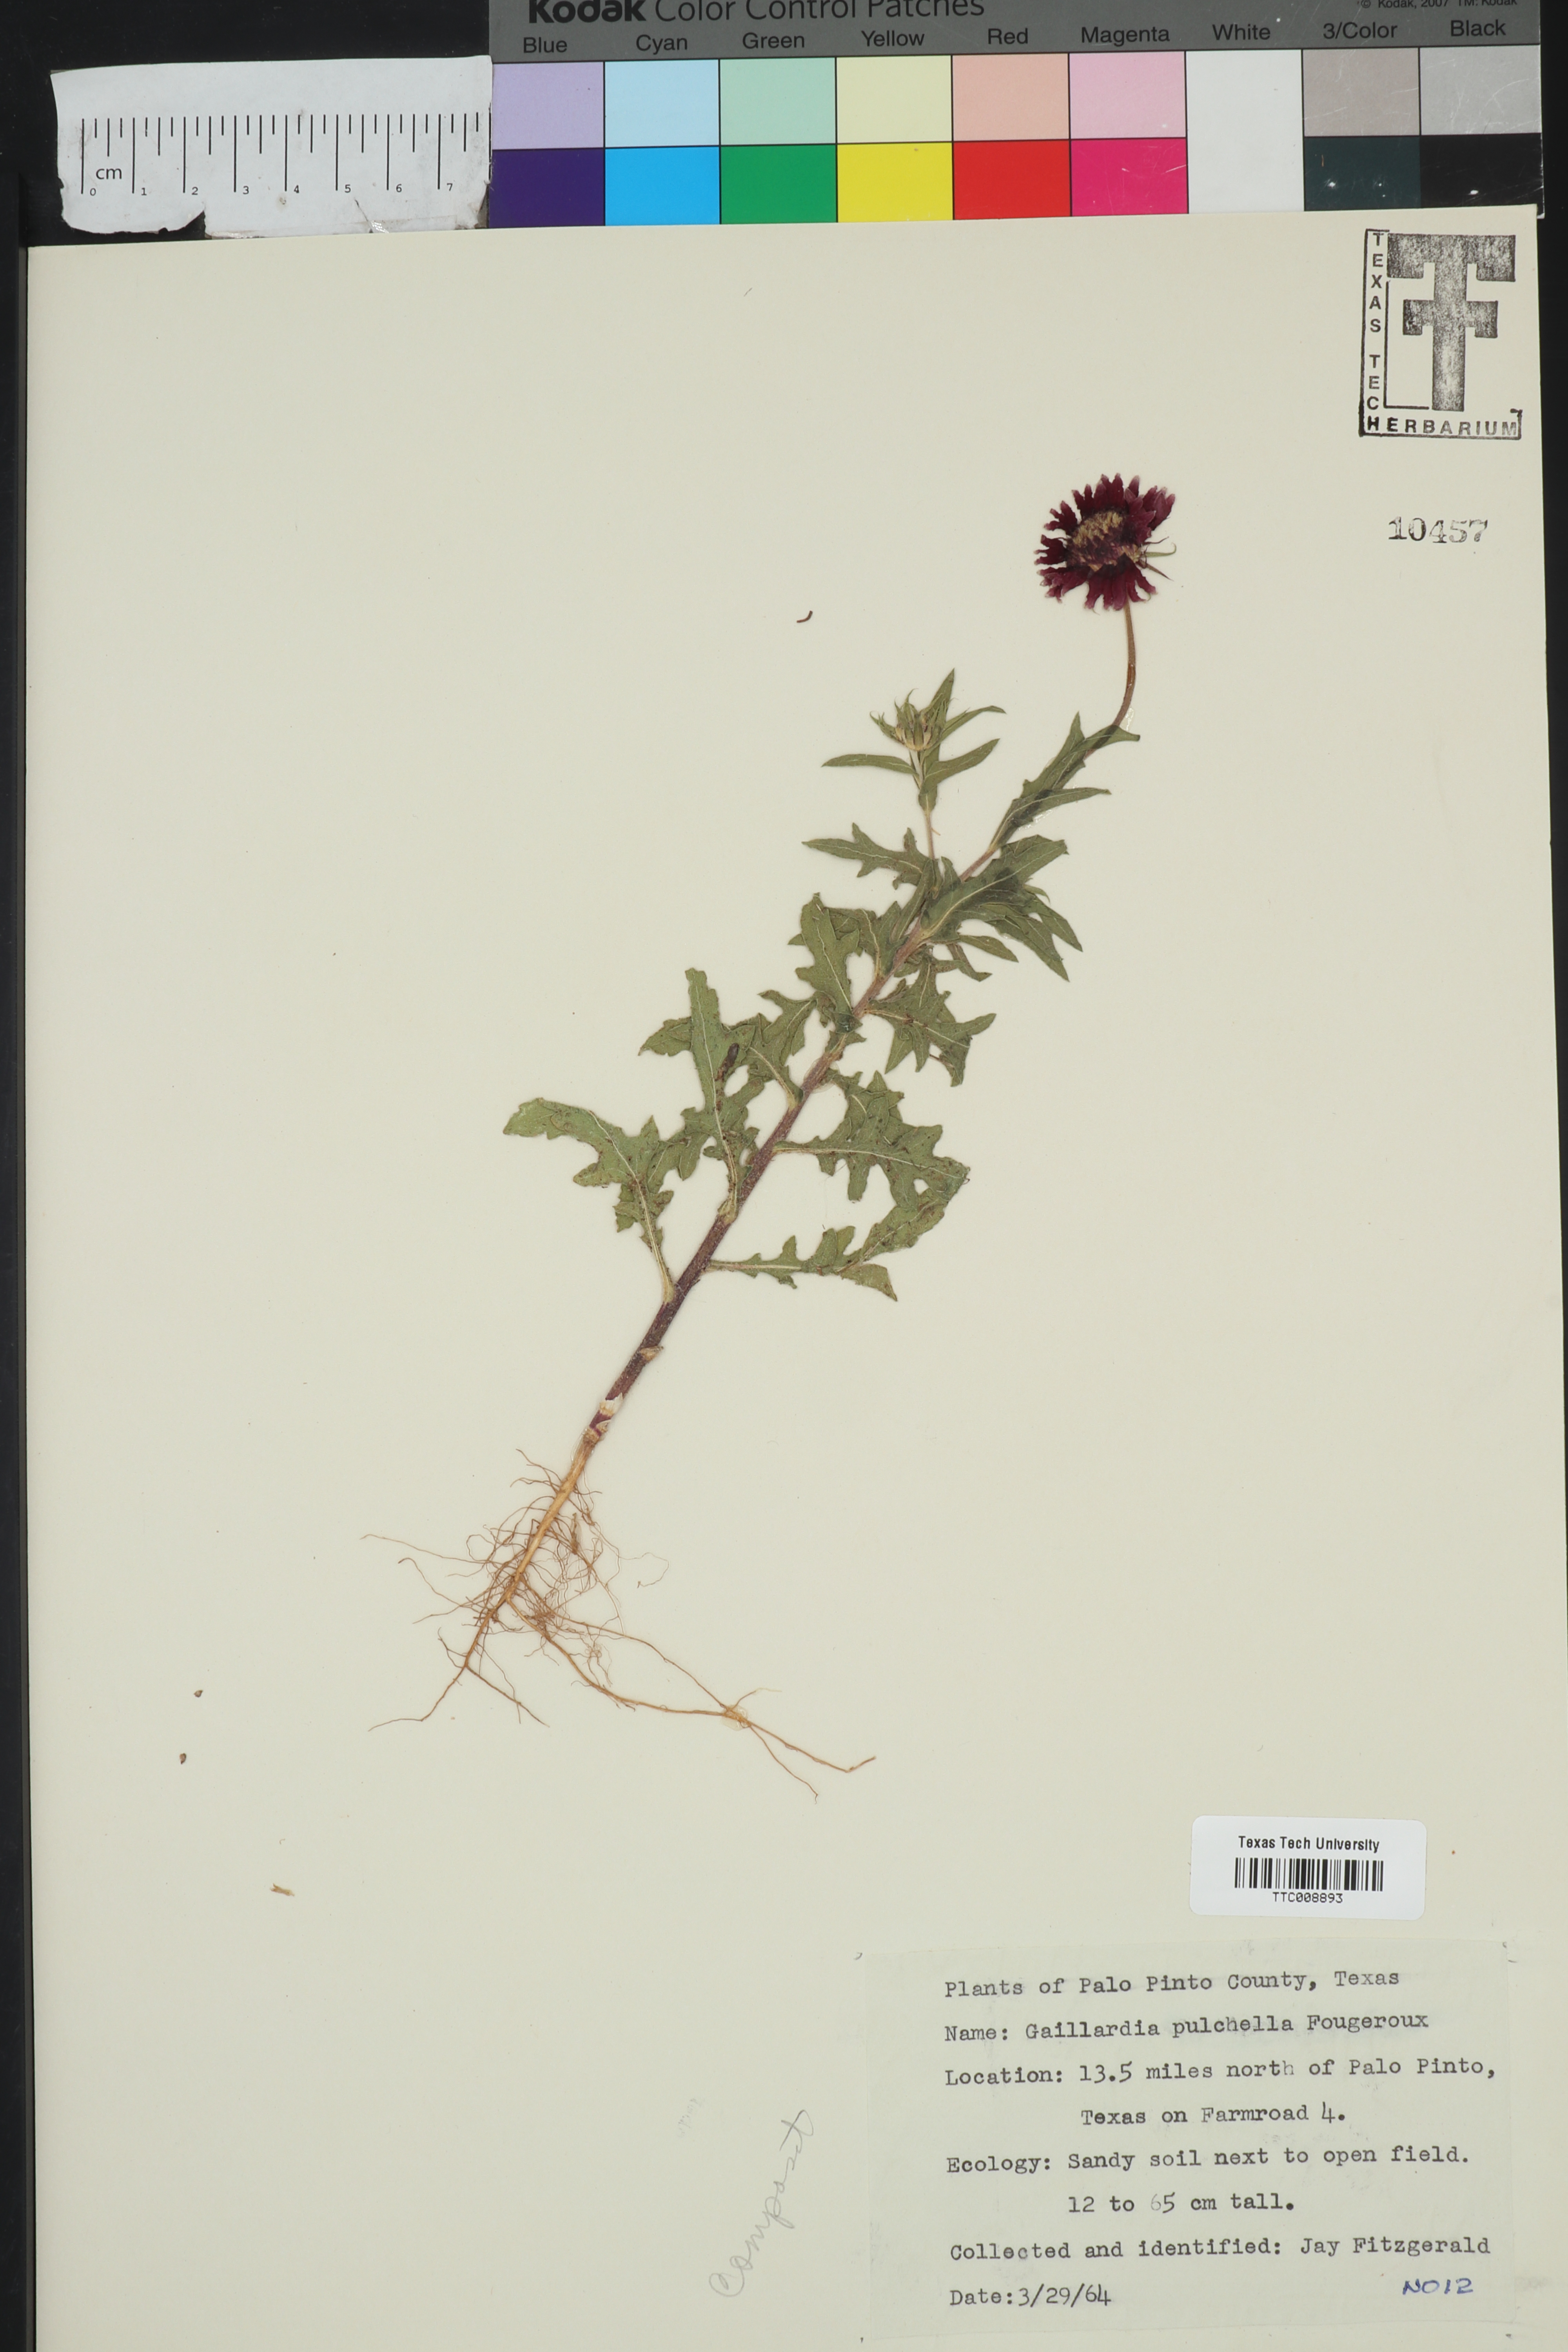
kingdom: Plantae
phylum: Tracheophyta
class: Magnoliopsida
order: Asterales
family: Asteraceae
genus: Gaillardia
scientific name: Gaillardia pulchella
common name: Firewheel
